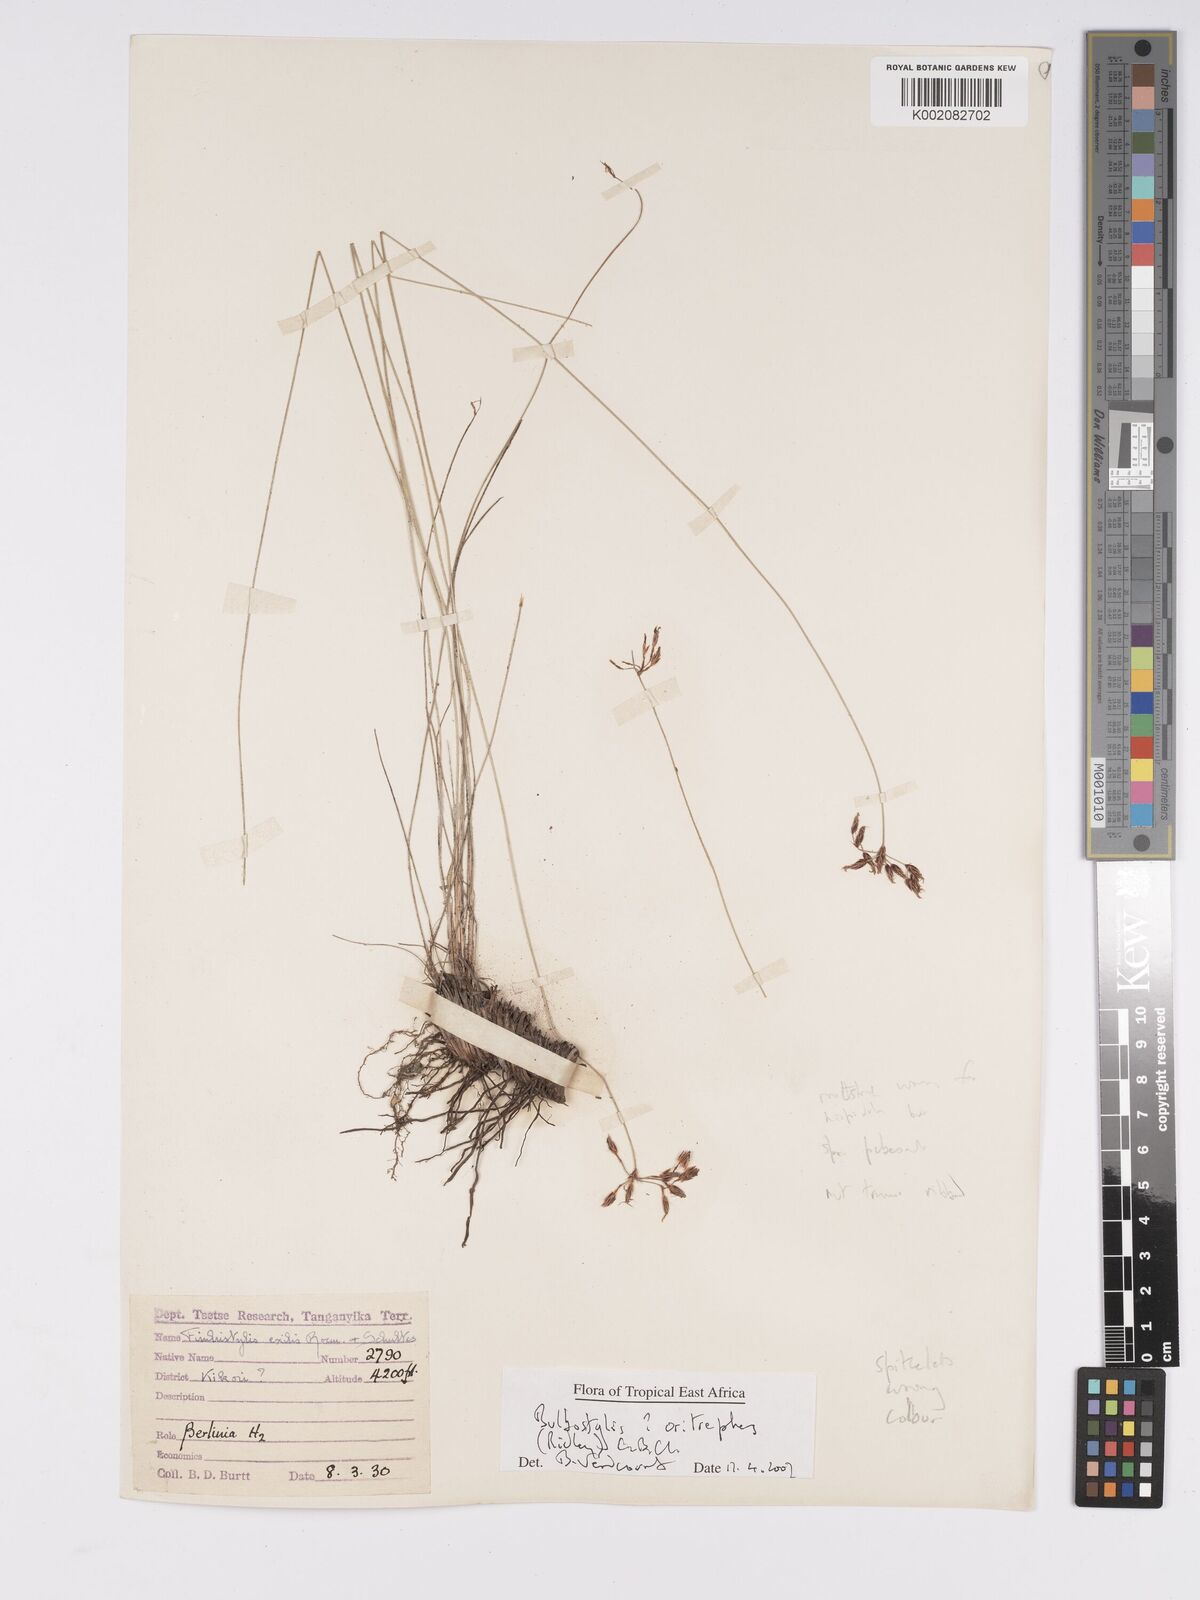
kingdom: Plantae
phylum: Tracheophyta
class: Liliopsida
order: Poales
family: Cyperaceae
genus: Bulbostylis
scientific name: Bulbostylis oritrephes
